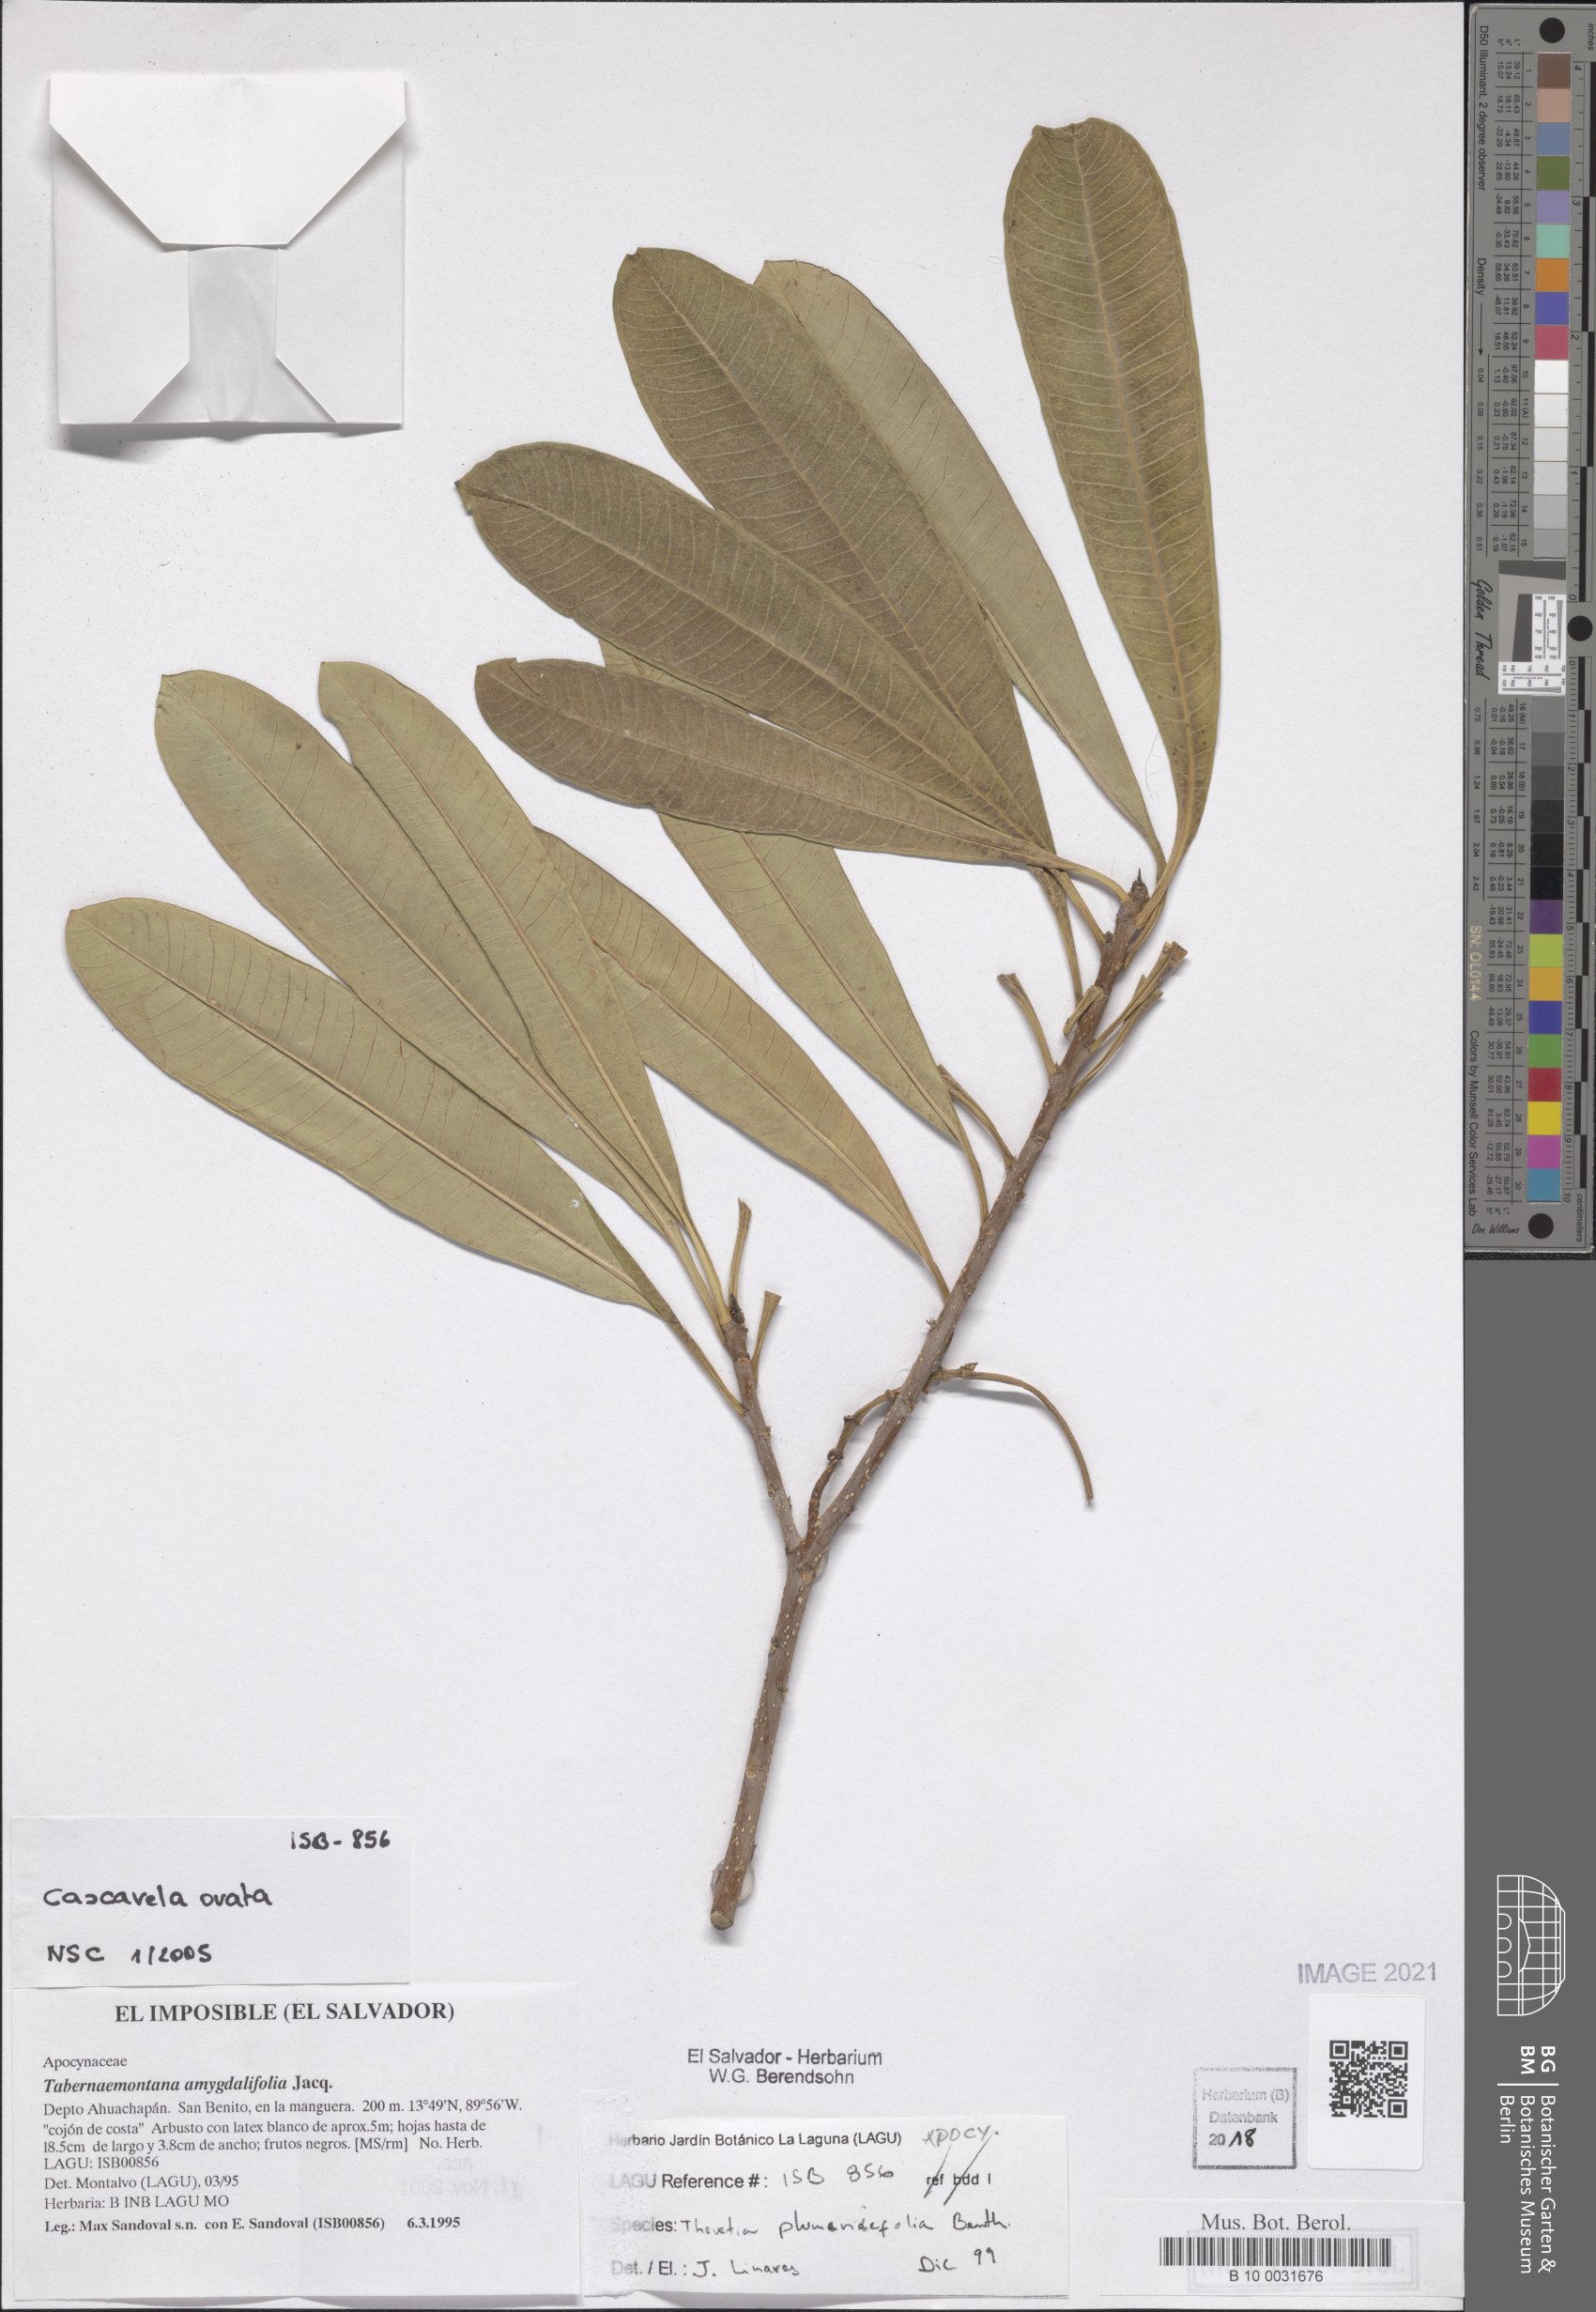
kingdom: Plantae
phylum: Tracheophyta
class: Magnoliopsida
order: Gentianales
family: Apocynaceae
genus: Cascabela
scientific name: Cascabela ovata
